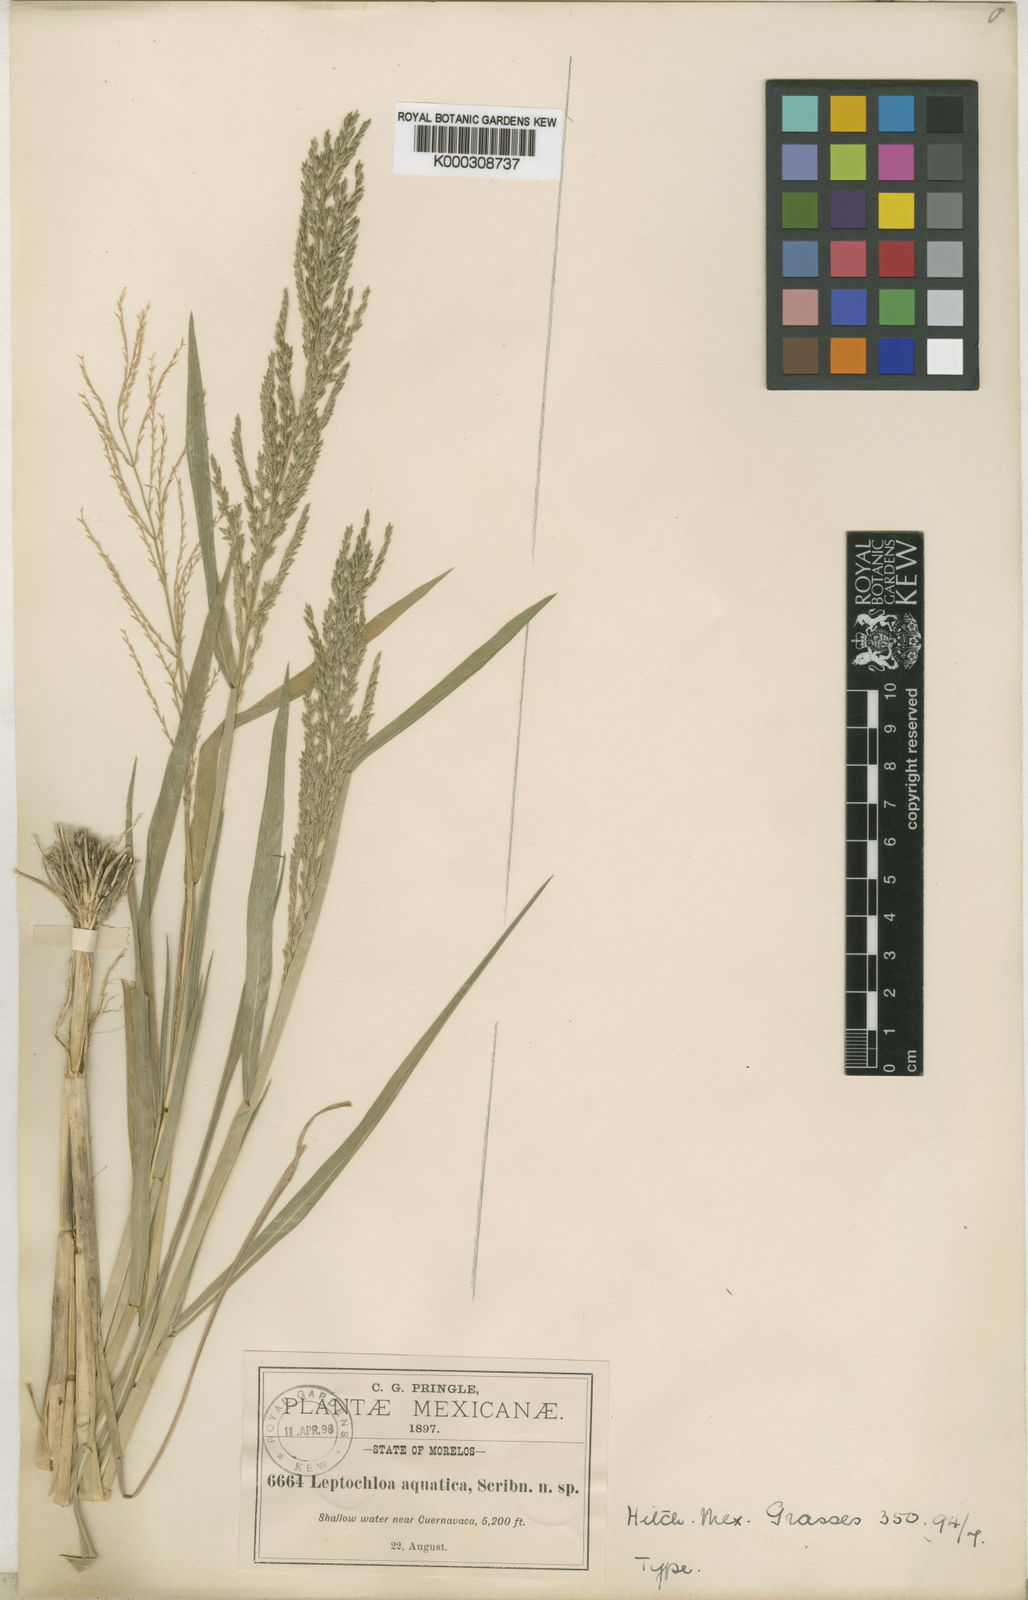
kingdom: Plantae
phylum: Tracheophyta
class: Liliopsida
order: Poales
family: Poaceae
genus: Leptochloa
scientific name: Leptochloa aquatica
